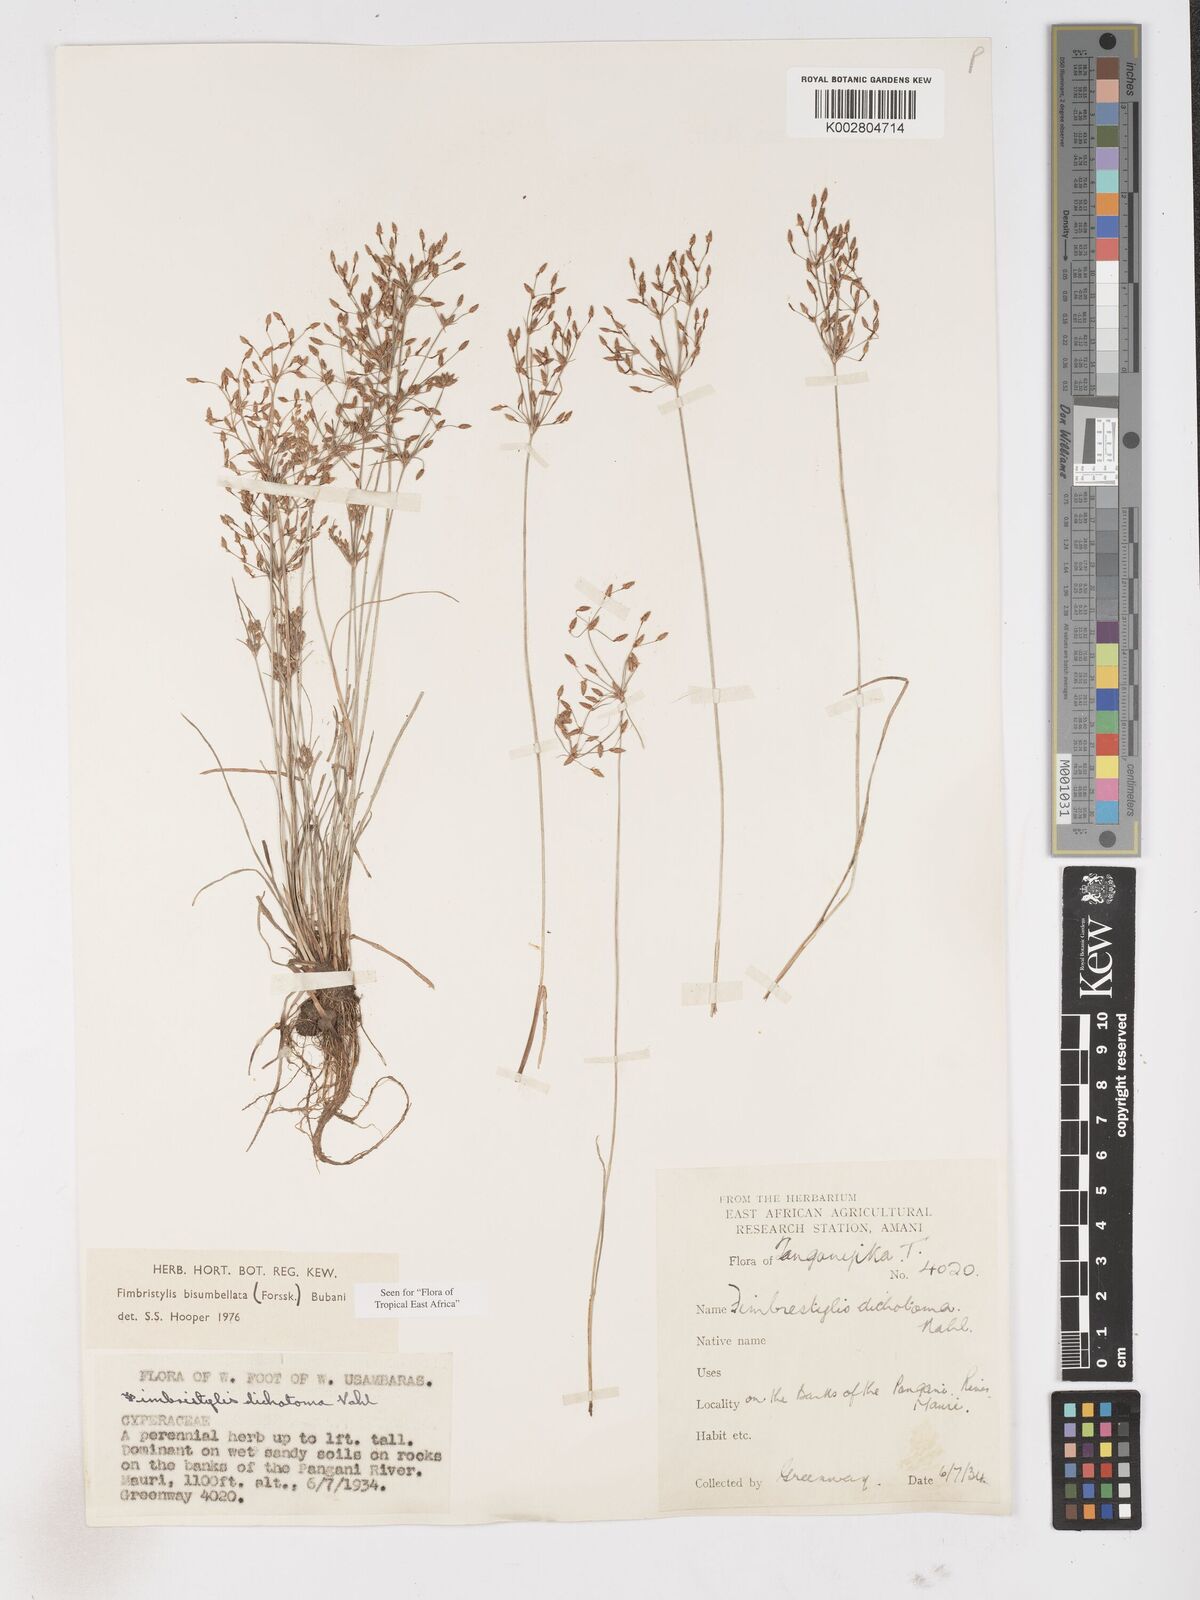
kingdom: Plantae
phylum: Tracheophyta
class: Liliopsida
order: Poales
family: Cyperaceae
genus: Fimbristylis
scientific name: Fimbristylis bisumbellata
